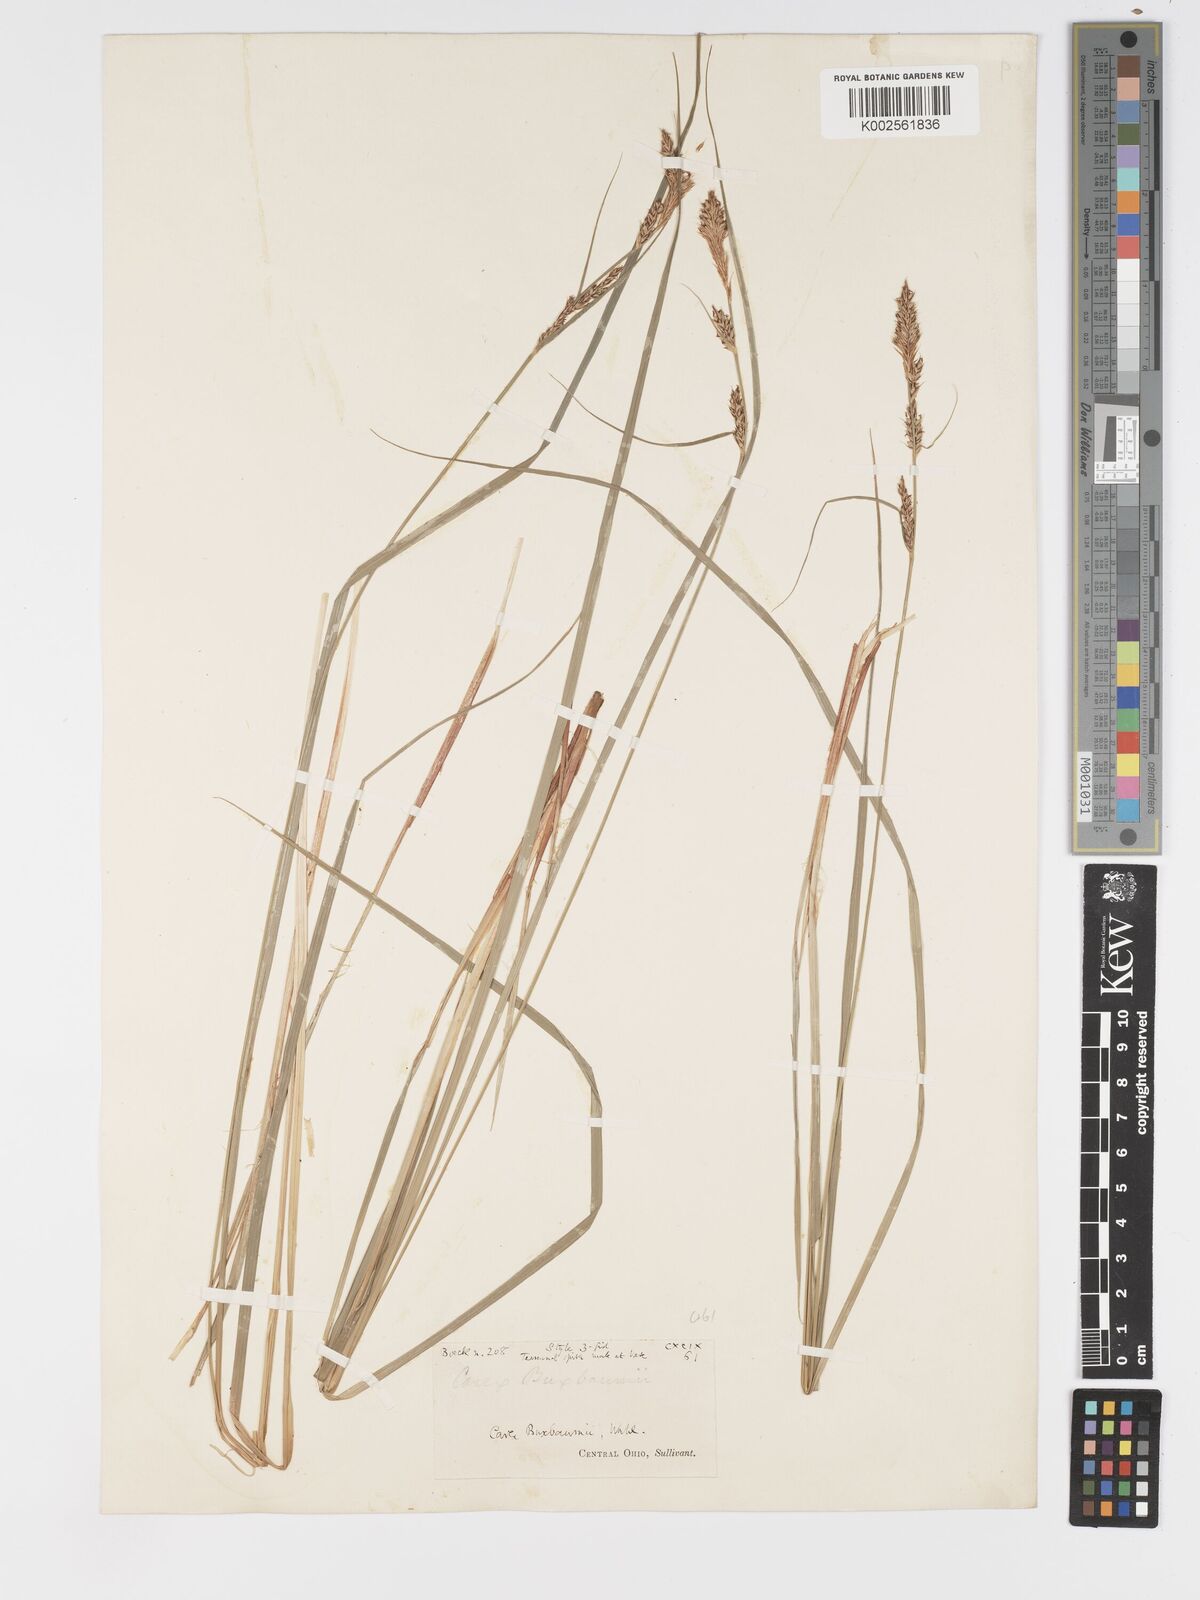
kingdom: Plantae
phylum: Tracheophyta
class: Liliopsida
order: Poales
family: Cyperaceae
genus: Carex
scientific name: Carex buxbaumii
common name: Club sedge
